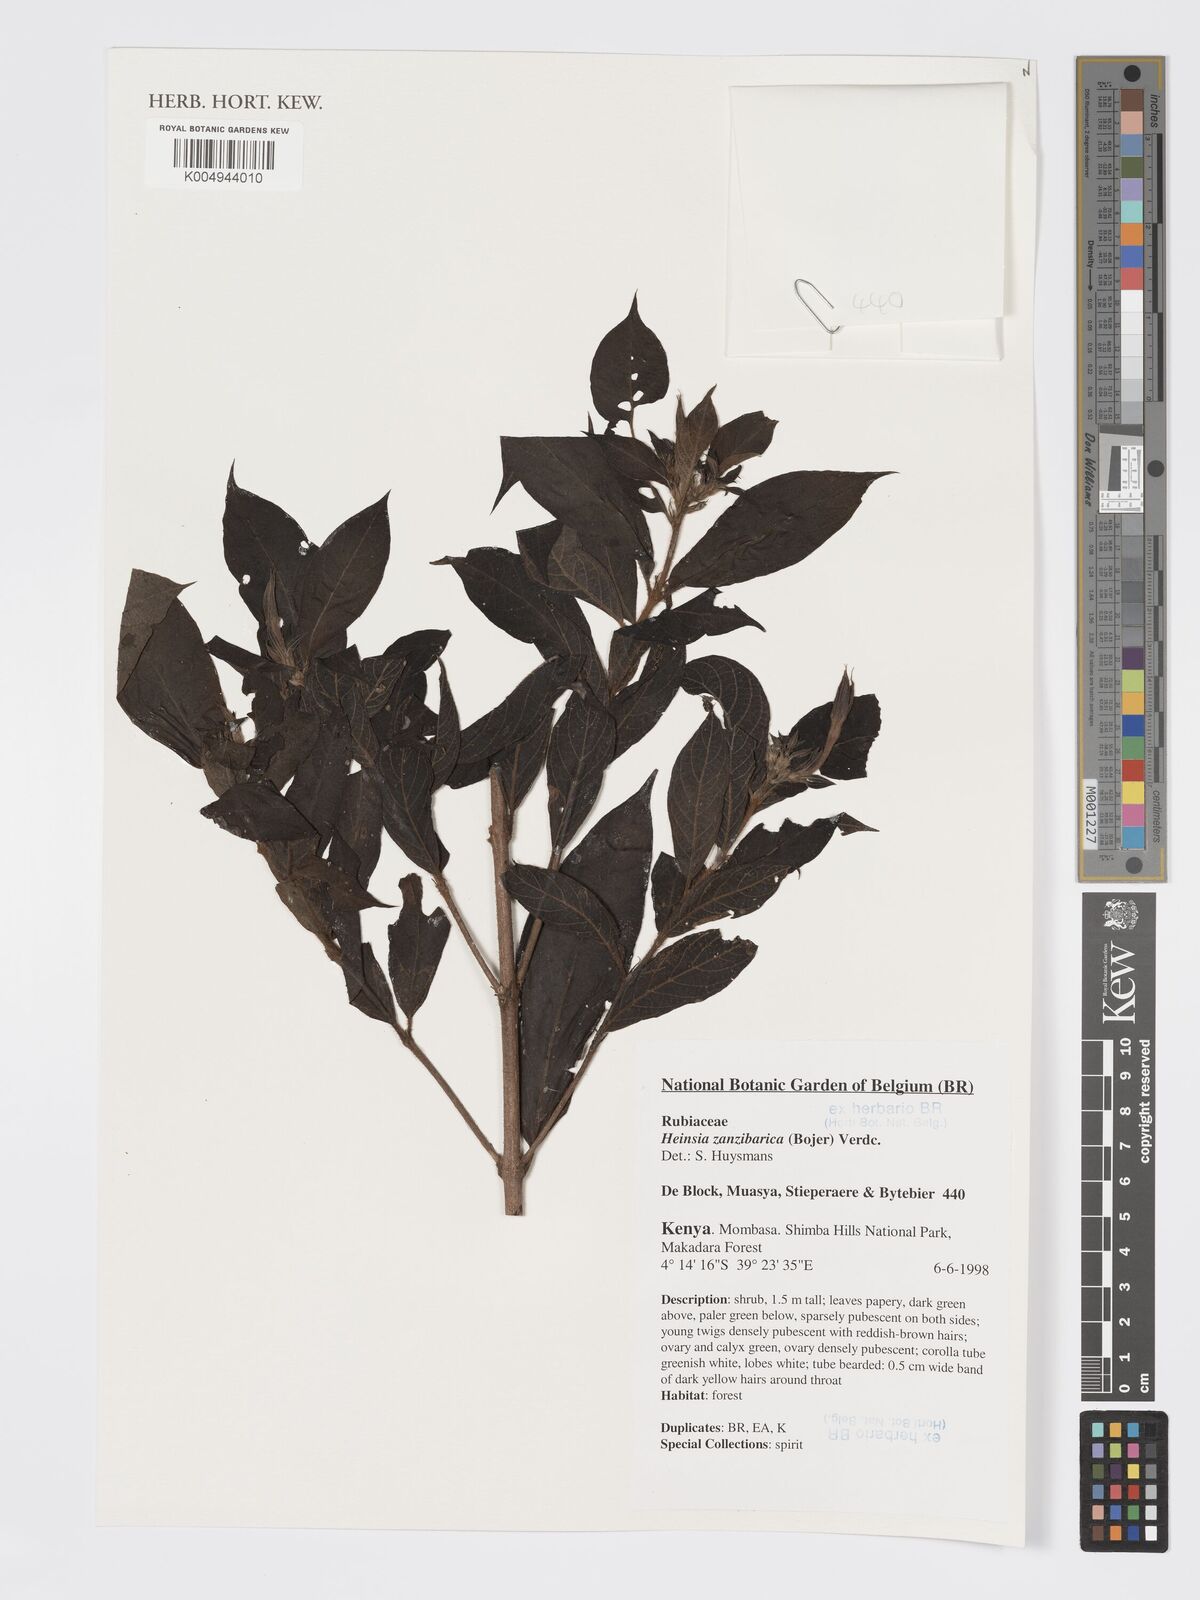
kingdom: Plantae
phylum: Tracheophyta
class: Magnoliopsida
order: Gentianales
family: Rubiaceae
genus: Heinsia
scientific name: Heinsia zanzibarica
